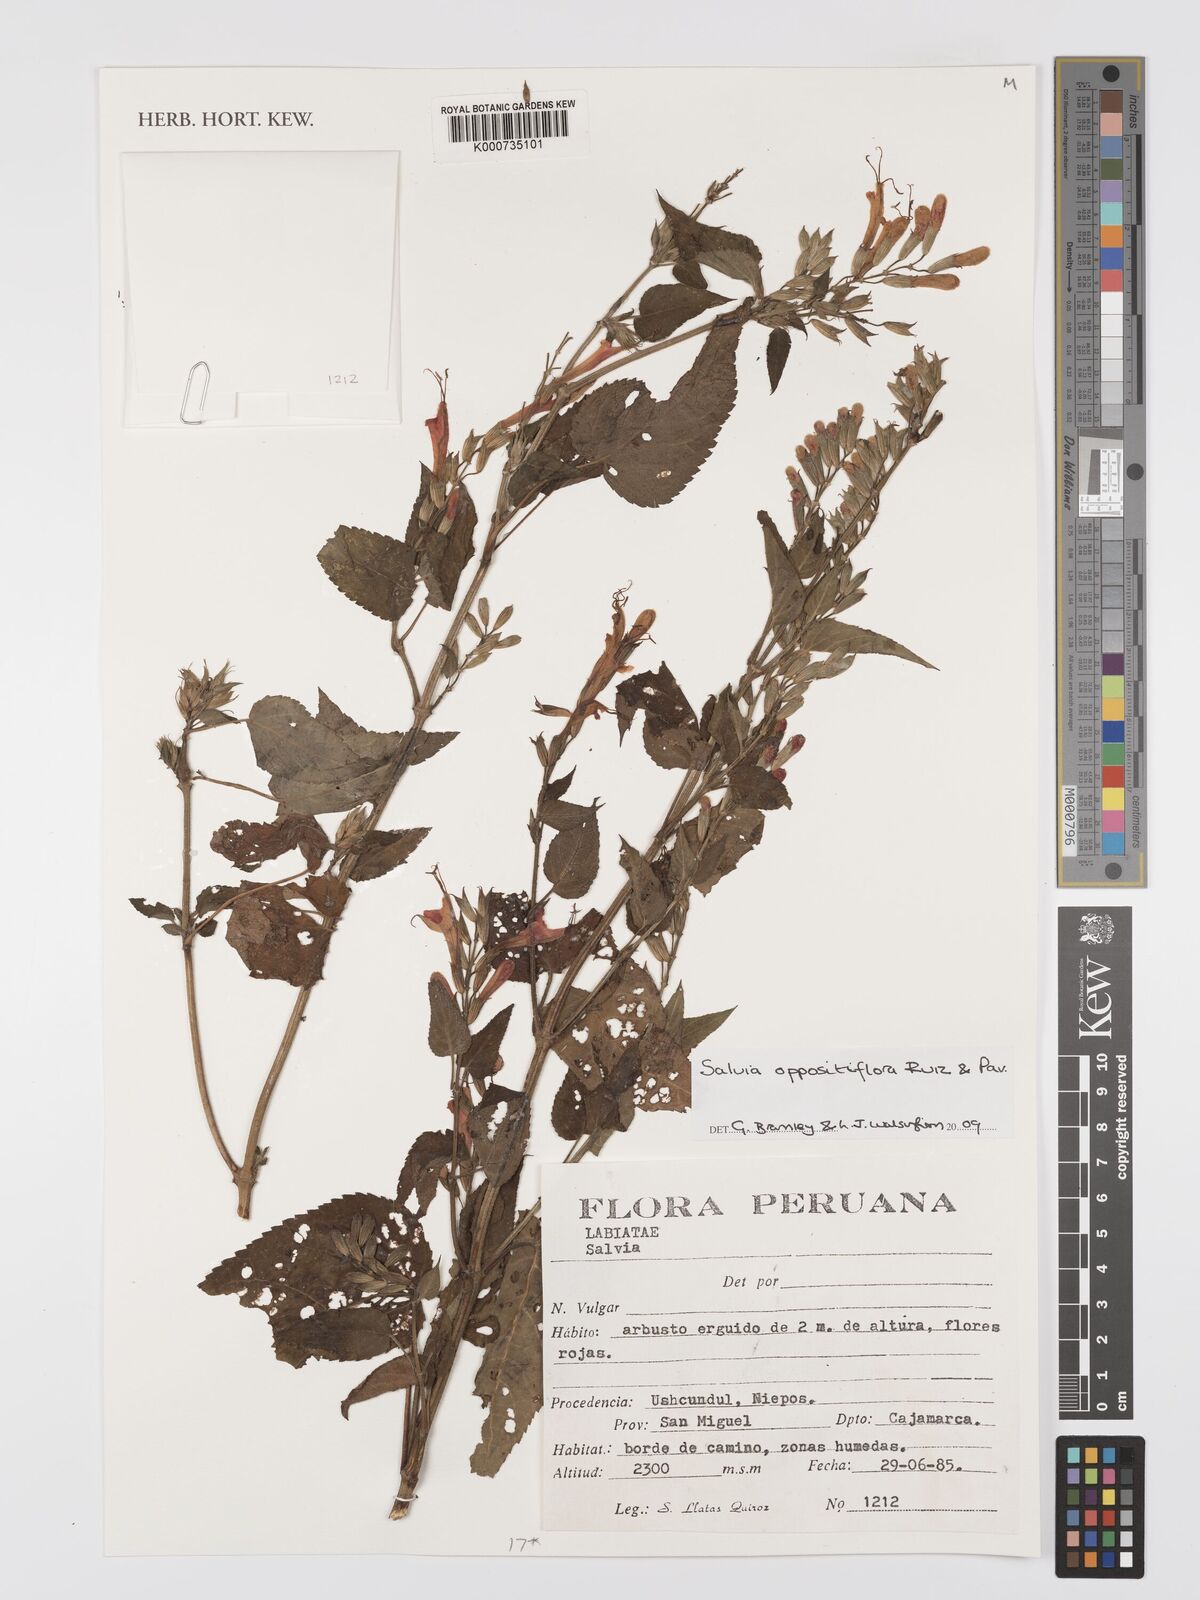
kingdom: Plantae
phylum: Tracheophyta
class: Magnoliopsida
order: Lamiales
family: Lamiaceae
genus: Salvia
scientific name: Salvia oppositiflora
